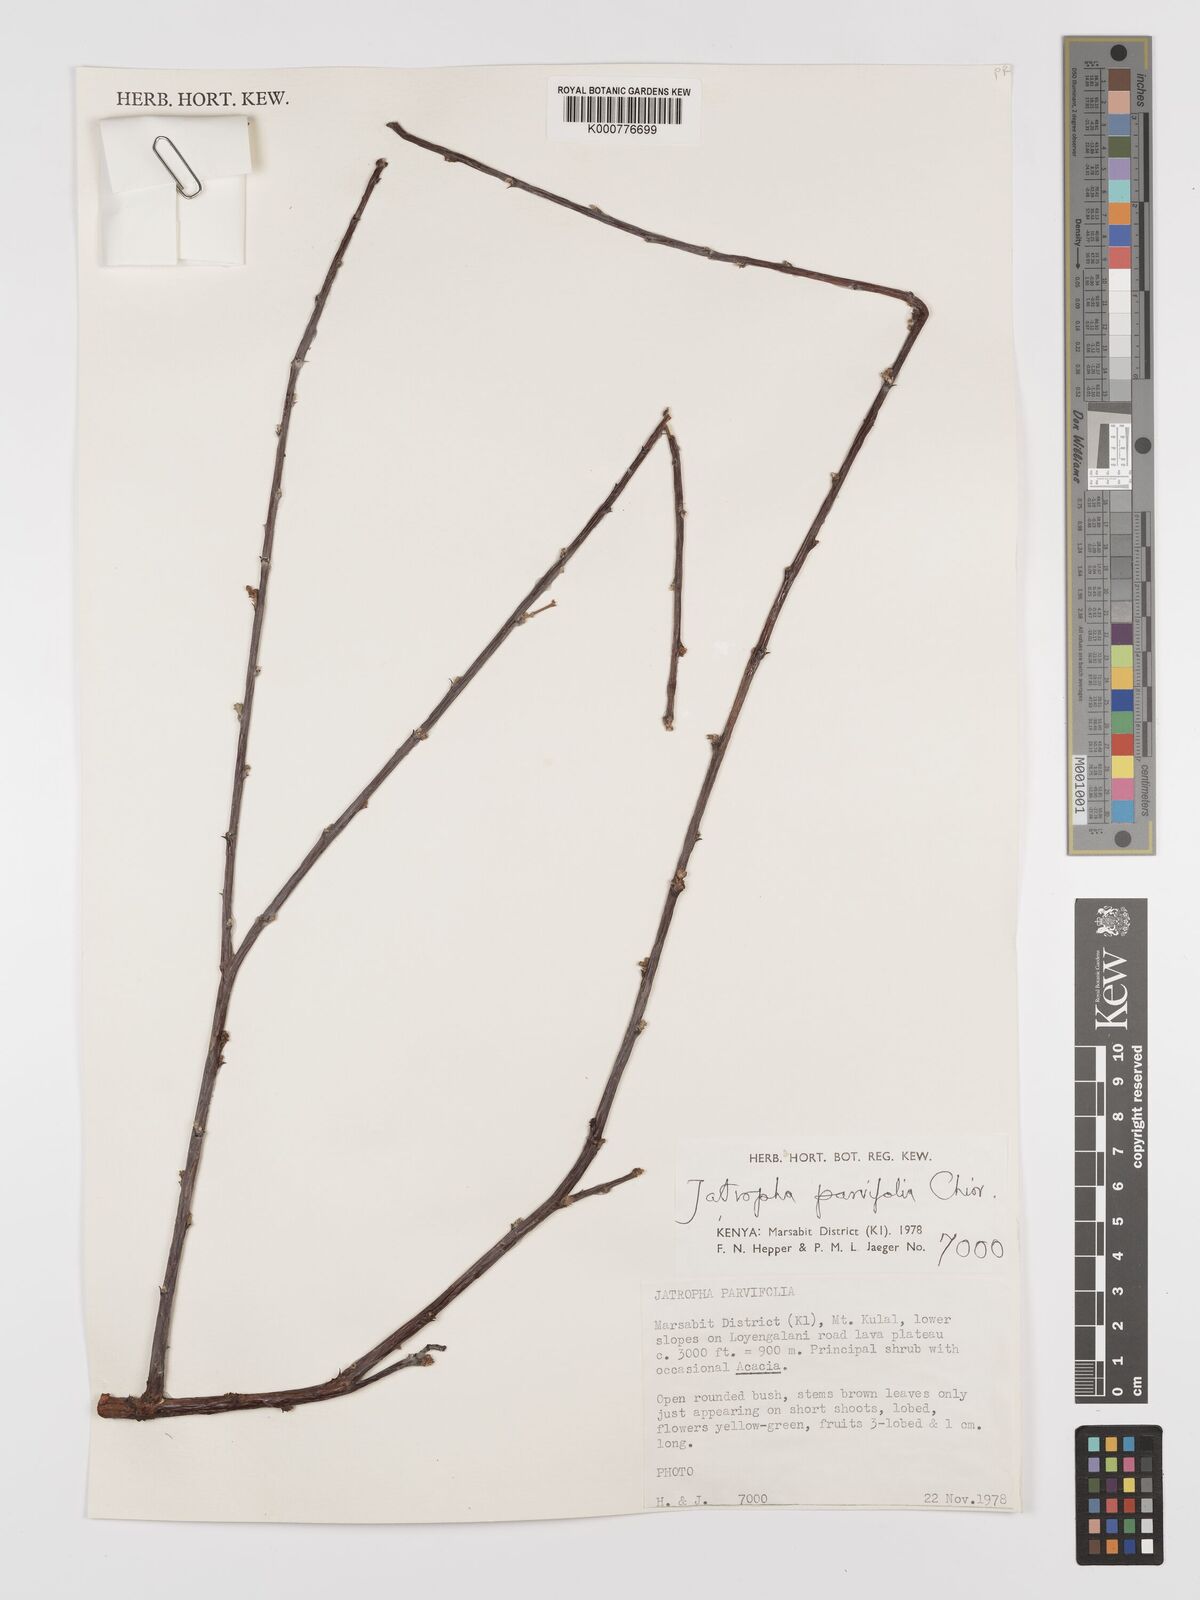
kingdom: Plantae
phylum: Tracheophyta
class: Magnoliopsida
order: Malpighiales
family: Euphorbiaceae
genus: Jatropha
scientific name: Jatropha rivae
